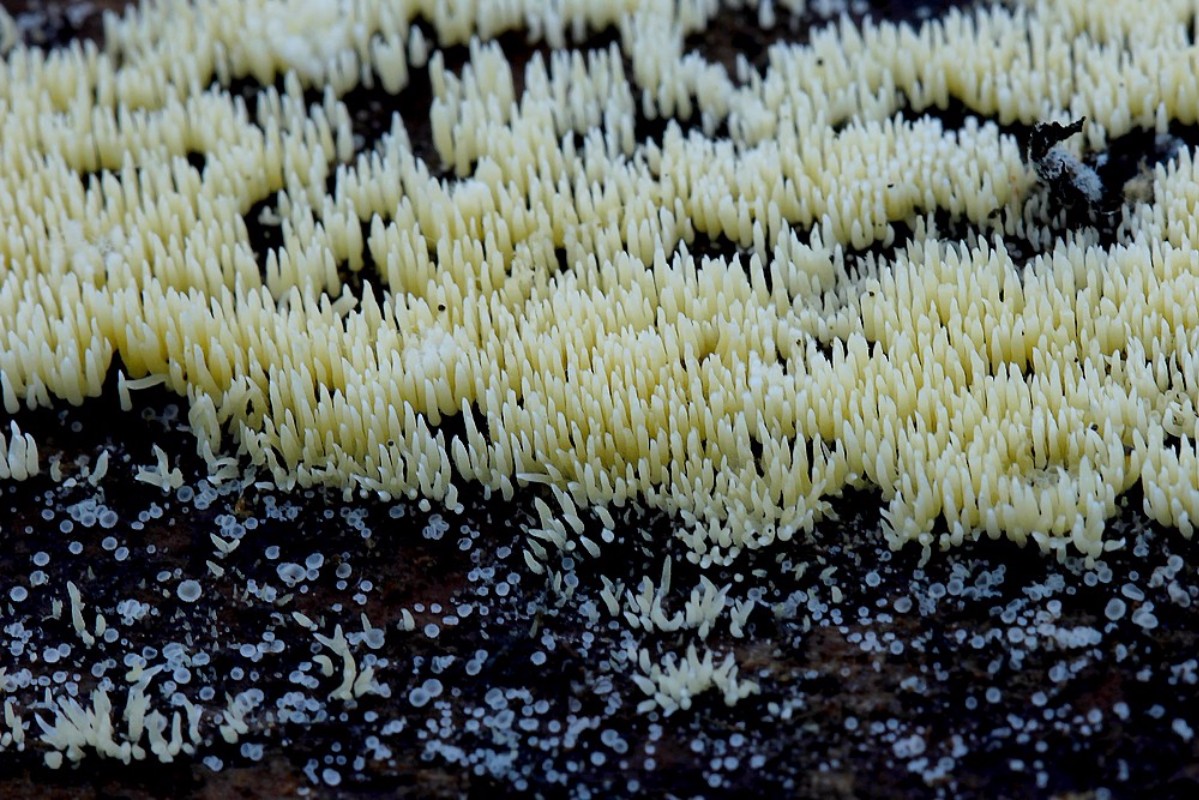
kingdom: Fungi
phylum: Basidiomycota
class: Agaricomycetes
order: Agaricales
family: Clavariaceae
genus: Mucronella
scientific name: Mucronella flava
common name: gul hængepig
